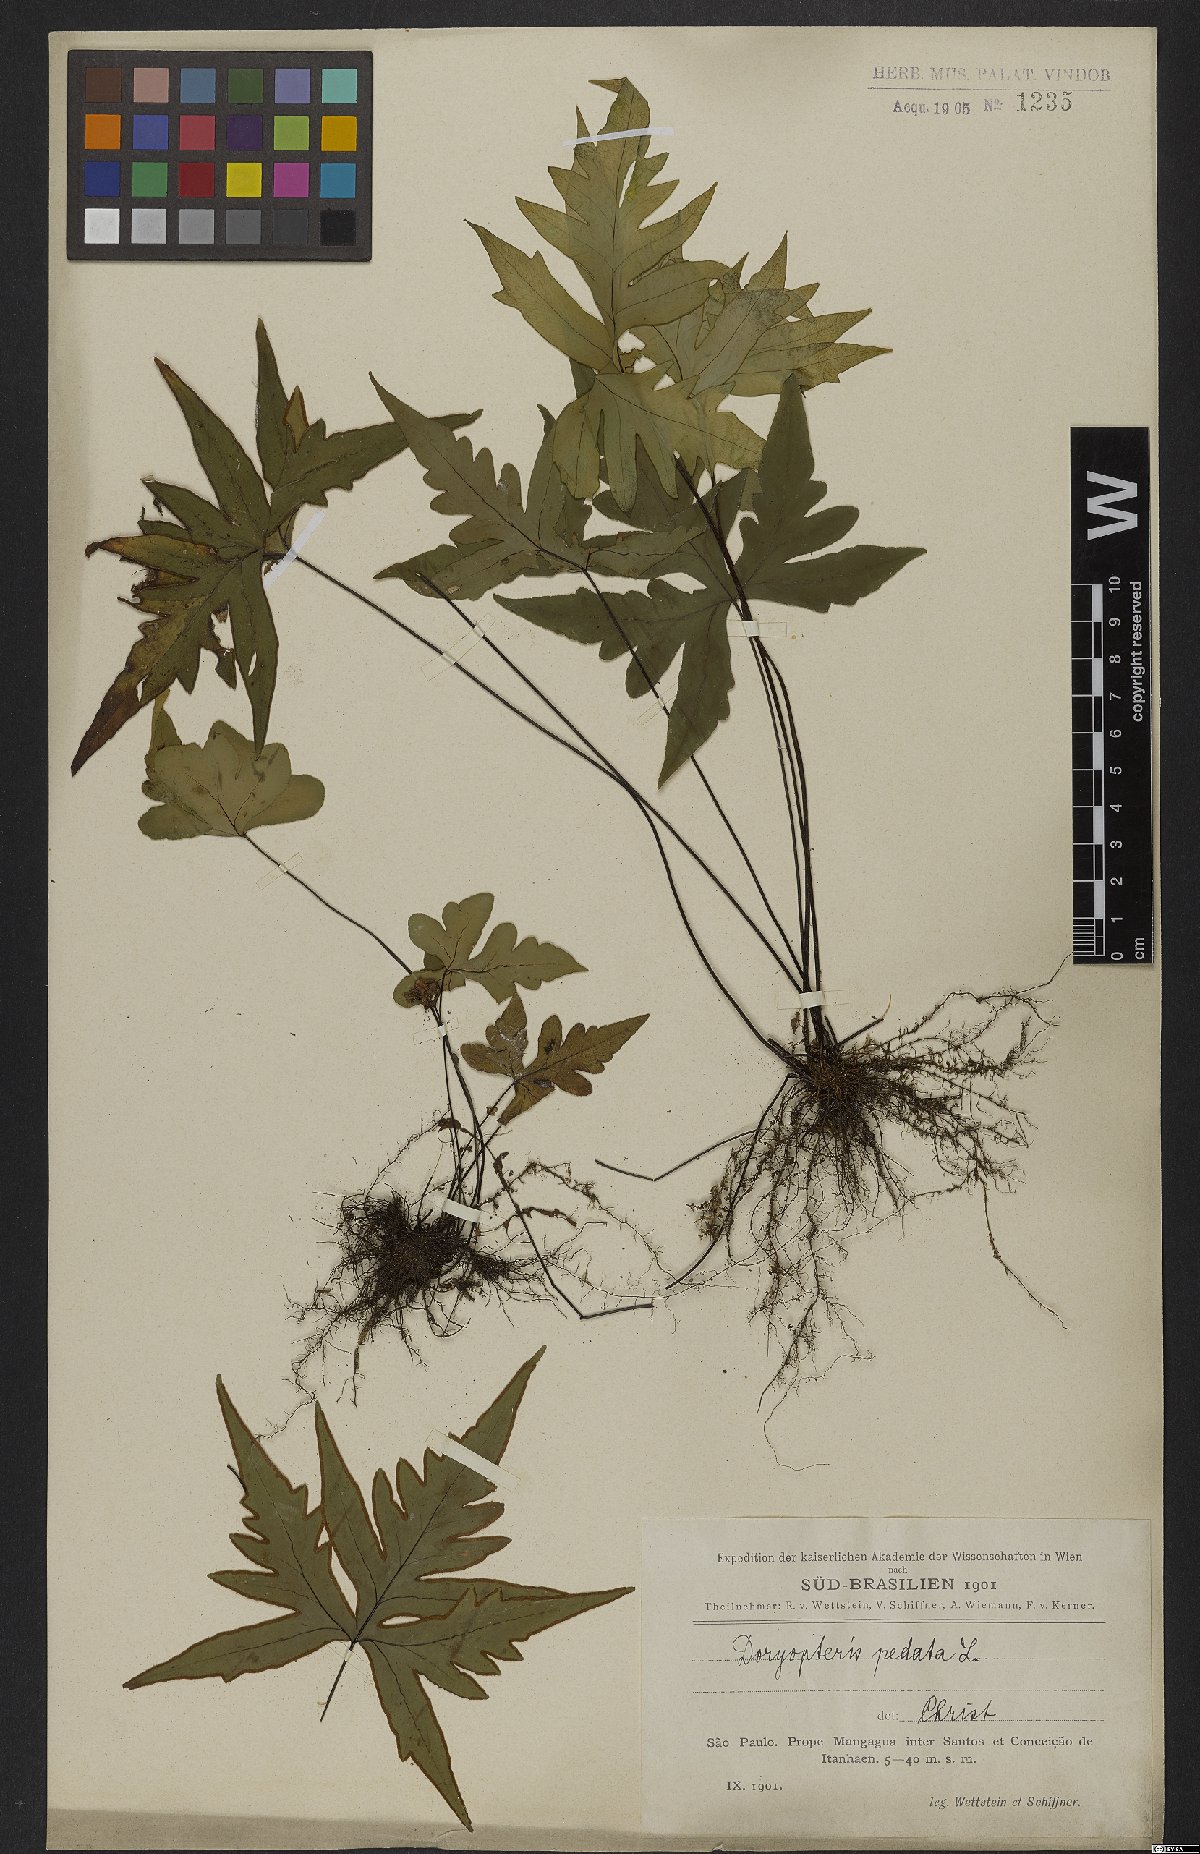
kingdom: Plantae
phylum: Tracheophyta
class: Polypodiopsida
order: Polypodiales
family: Pteridaceae
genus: Doryopteris
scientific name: Doryopteris pedata
